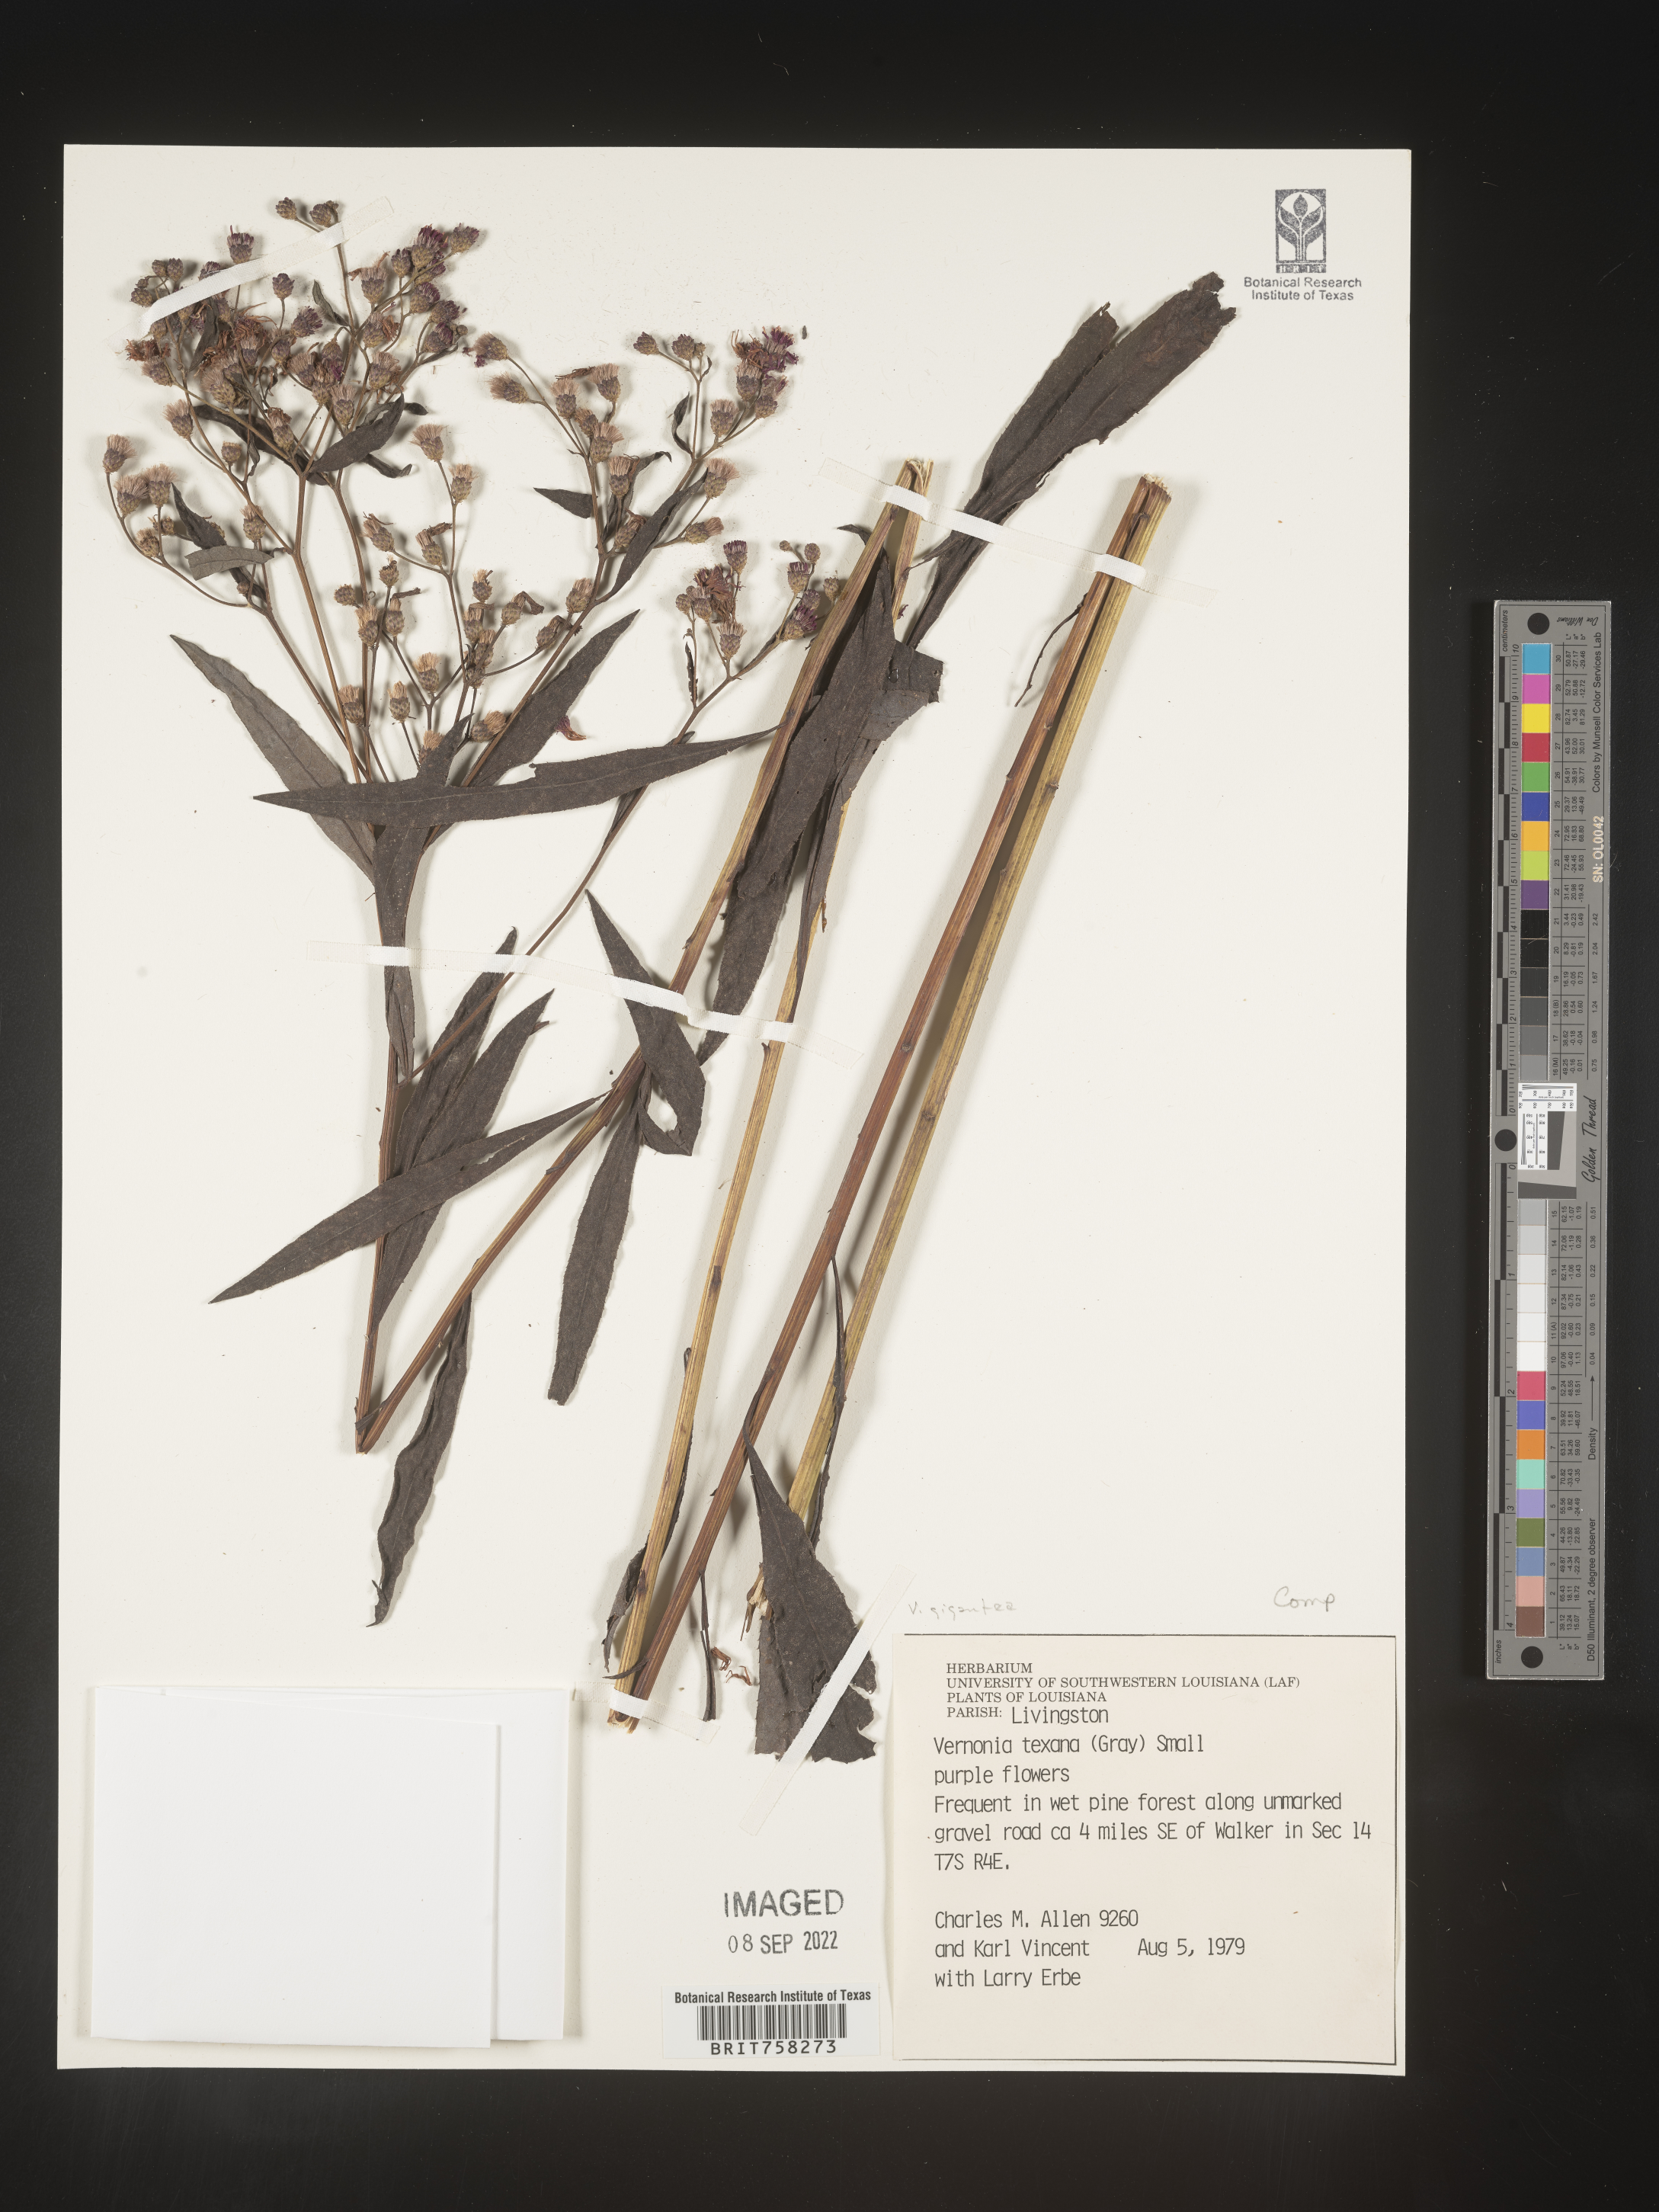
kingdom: Plantae
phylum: Tracheophyta
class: Magnoliopsida
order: Asterales
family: Asteraceae
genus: Vernonia
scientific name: Vernonia gigantea
